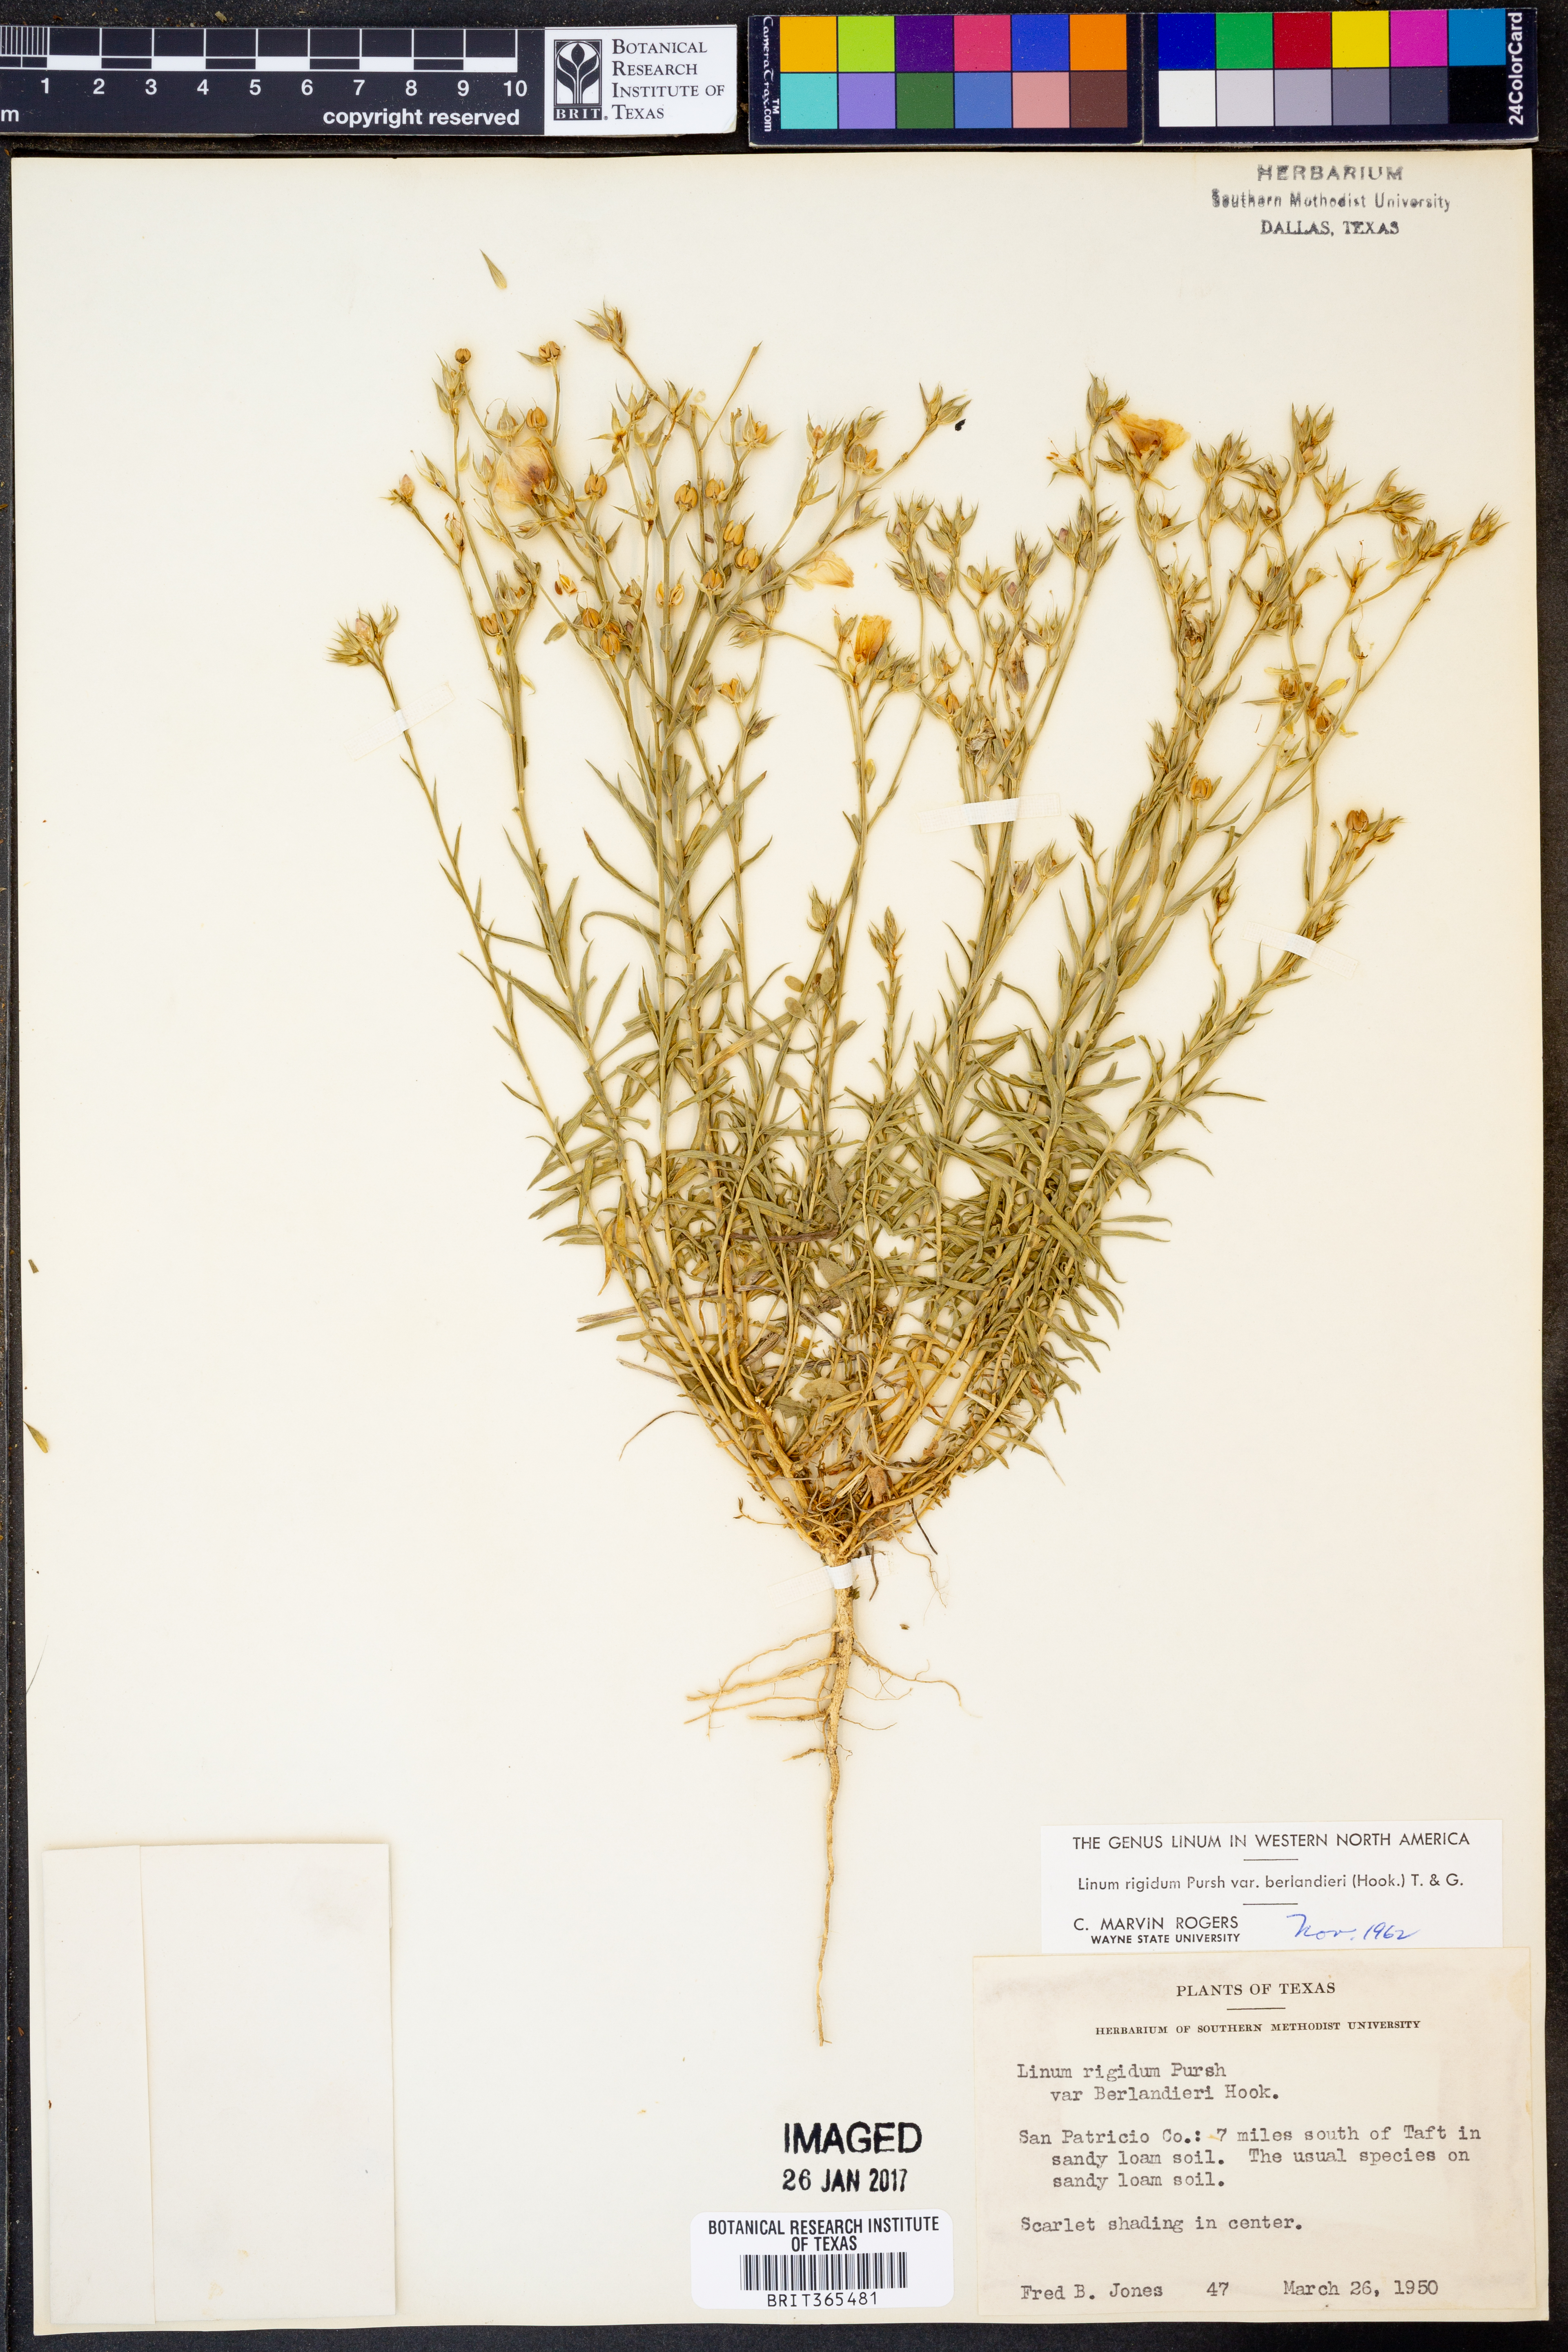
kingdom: Plantae
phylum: Tracheophyta
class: Magnoliopsida
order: Malpighiales
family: Linaceae
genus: Linum
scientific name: Linum berlandieri
